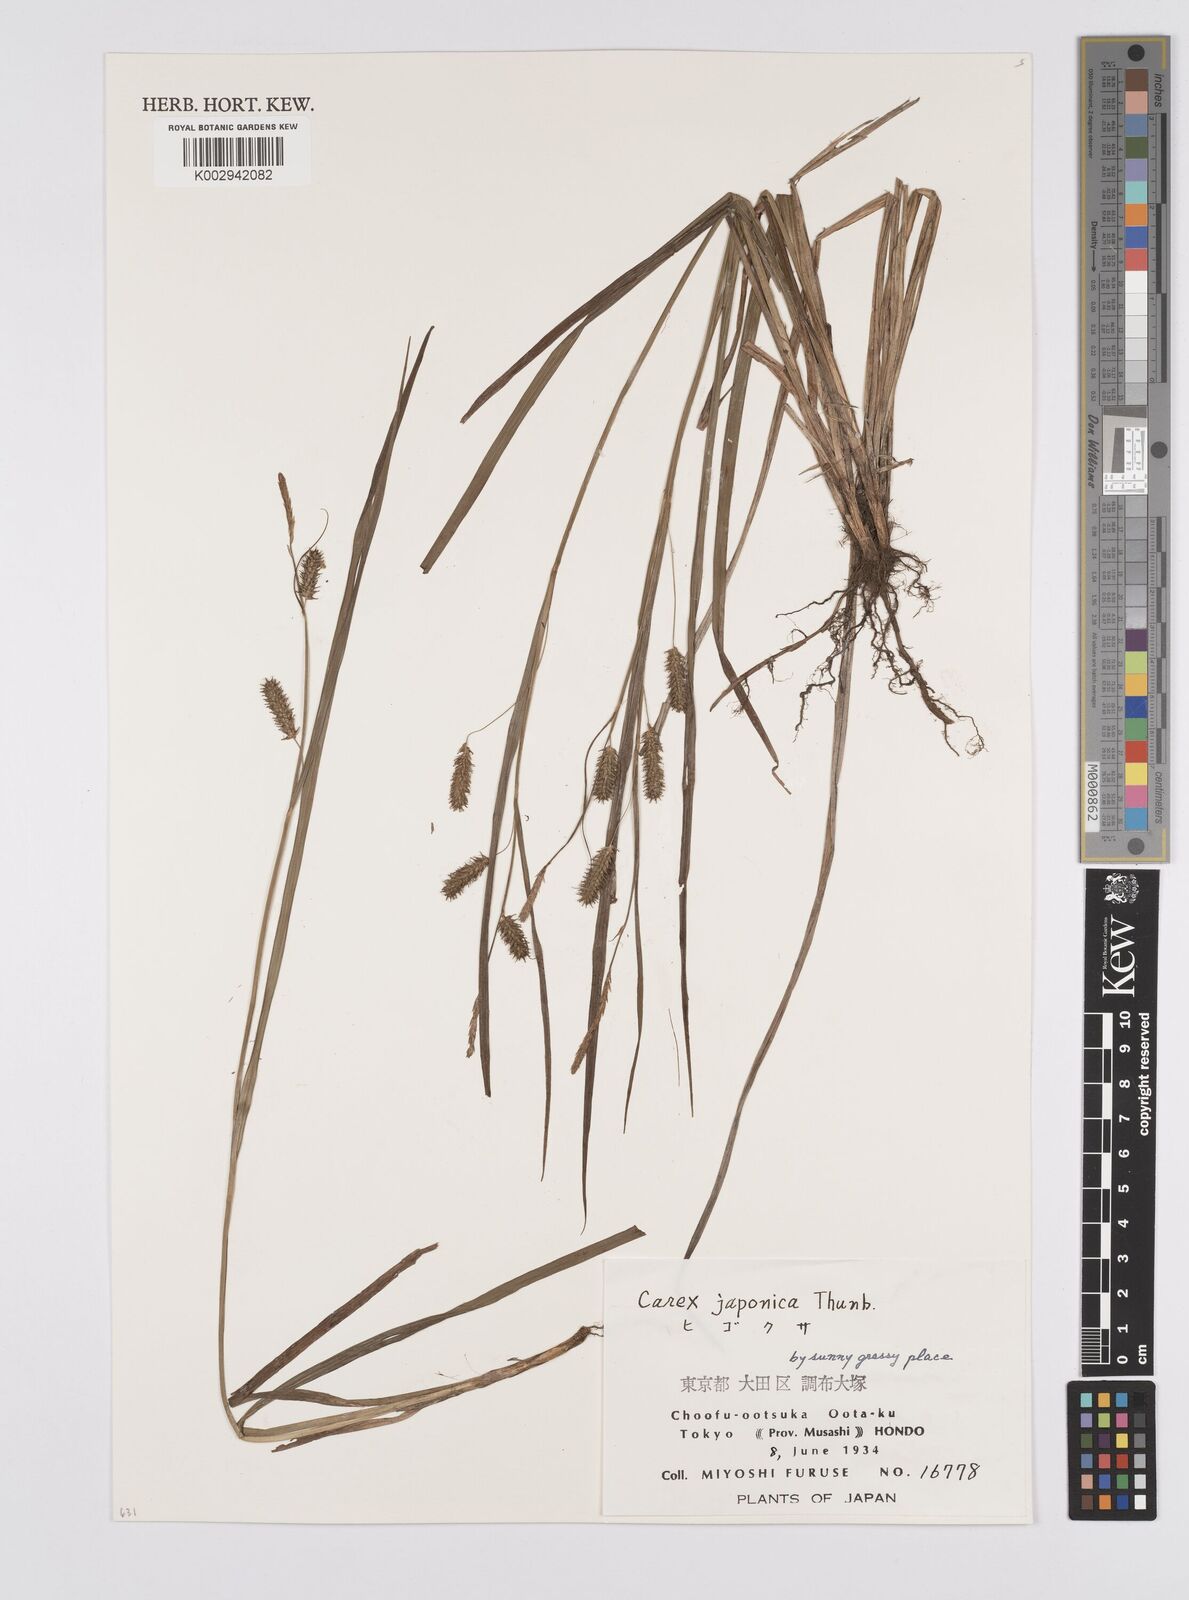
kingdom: Plantae
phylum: Tracheophyta
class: Liliopsida
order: Poales
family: Cyperaceae
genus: Carex
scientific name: Carex japonica
